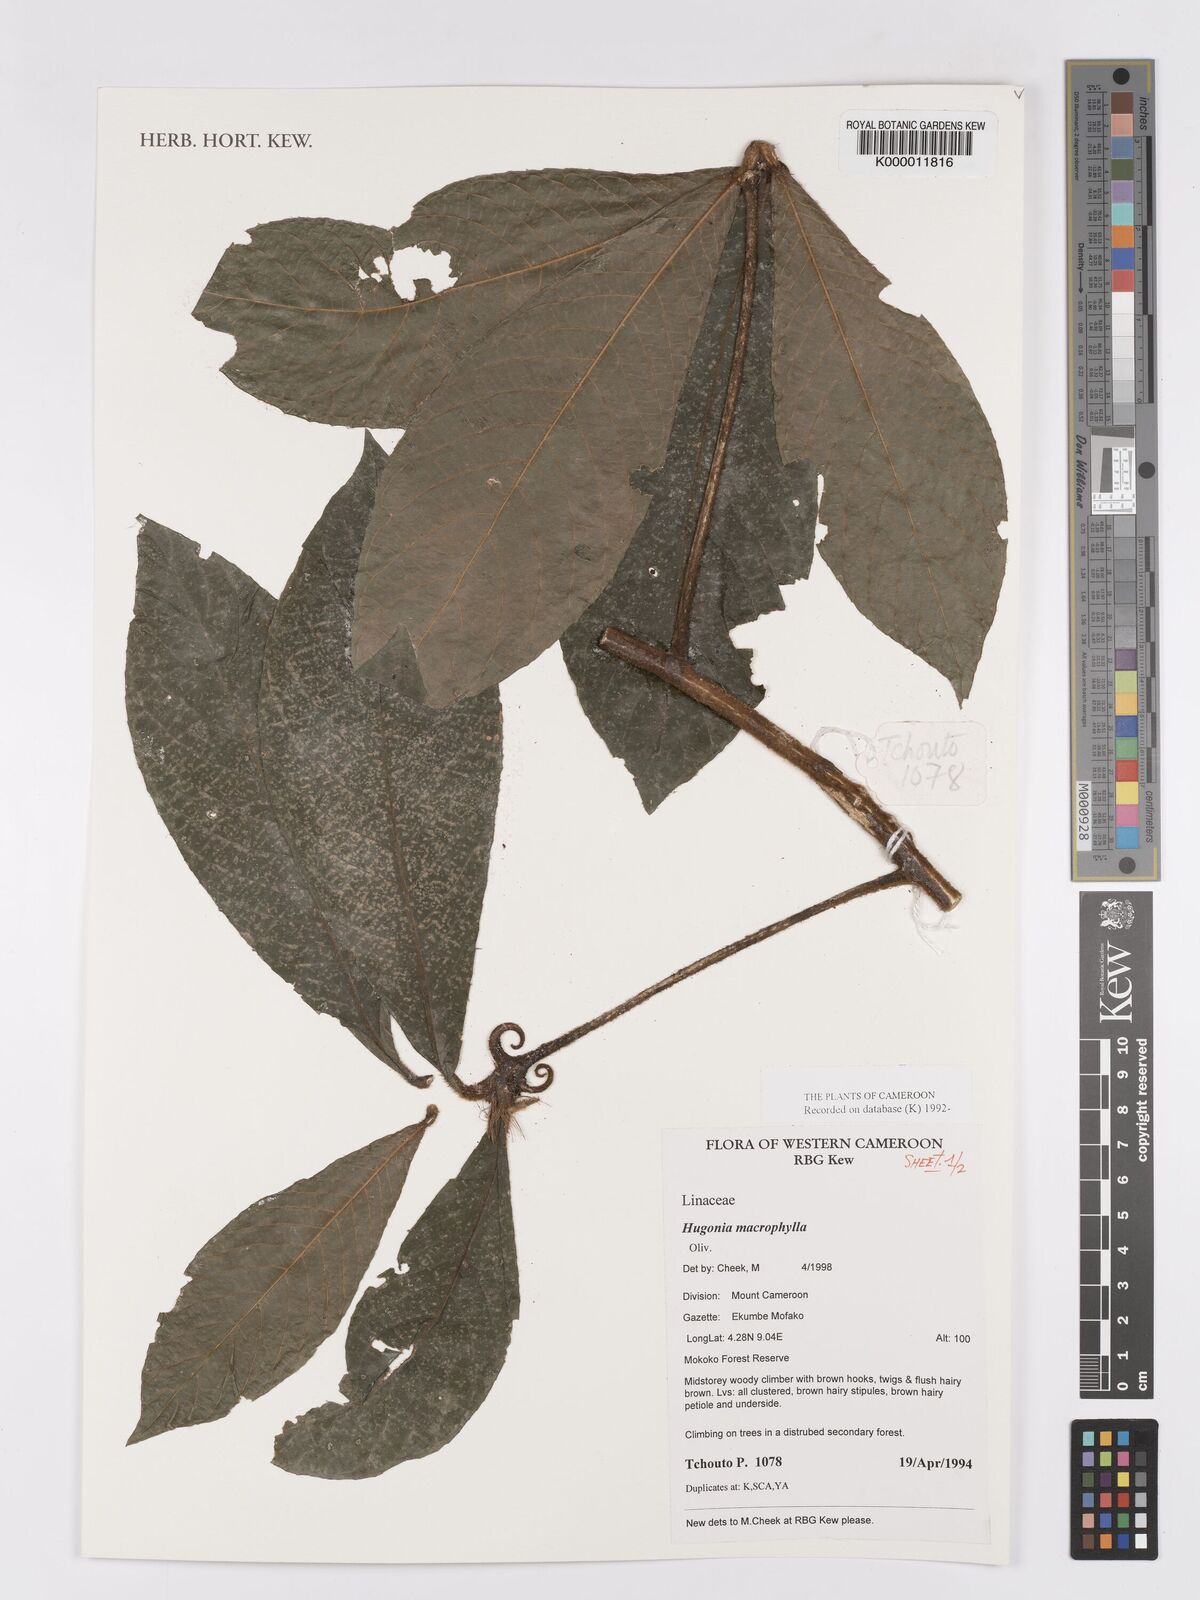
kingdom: Plantae
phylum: Tracheophyta
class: Magnoliopsida
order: Malpighiales
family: Linaceae
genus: Hugonia
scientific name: Hugonia macrophylla
